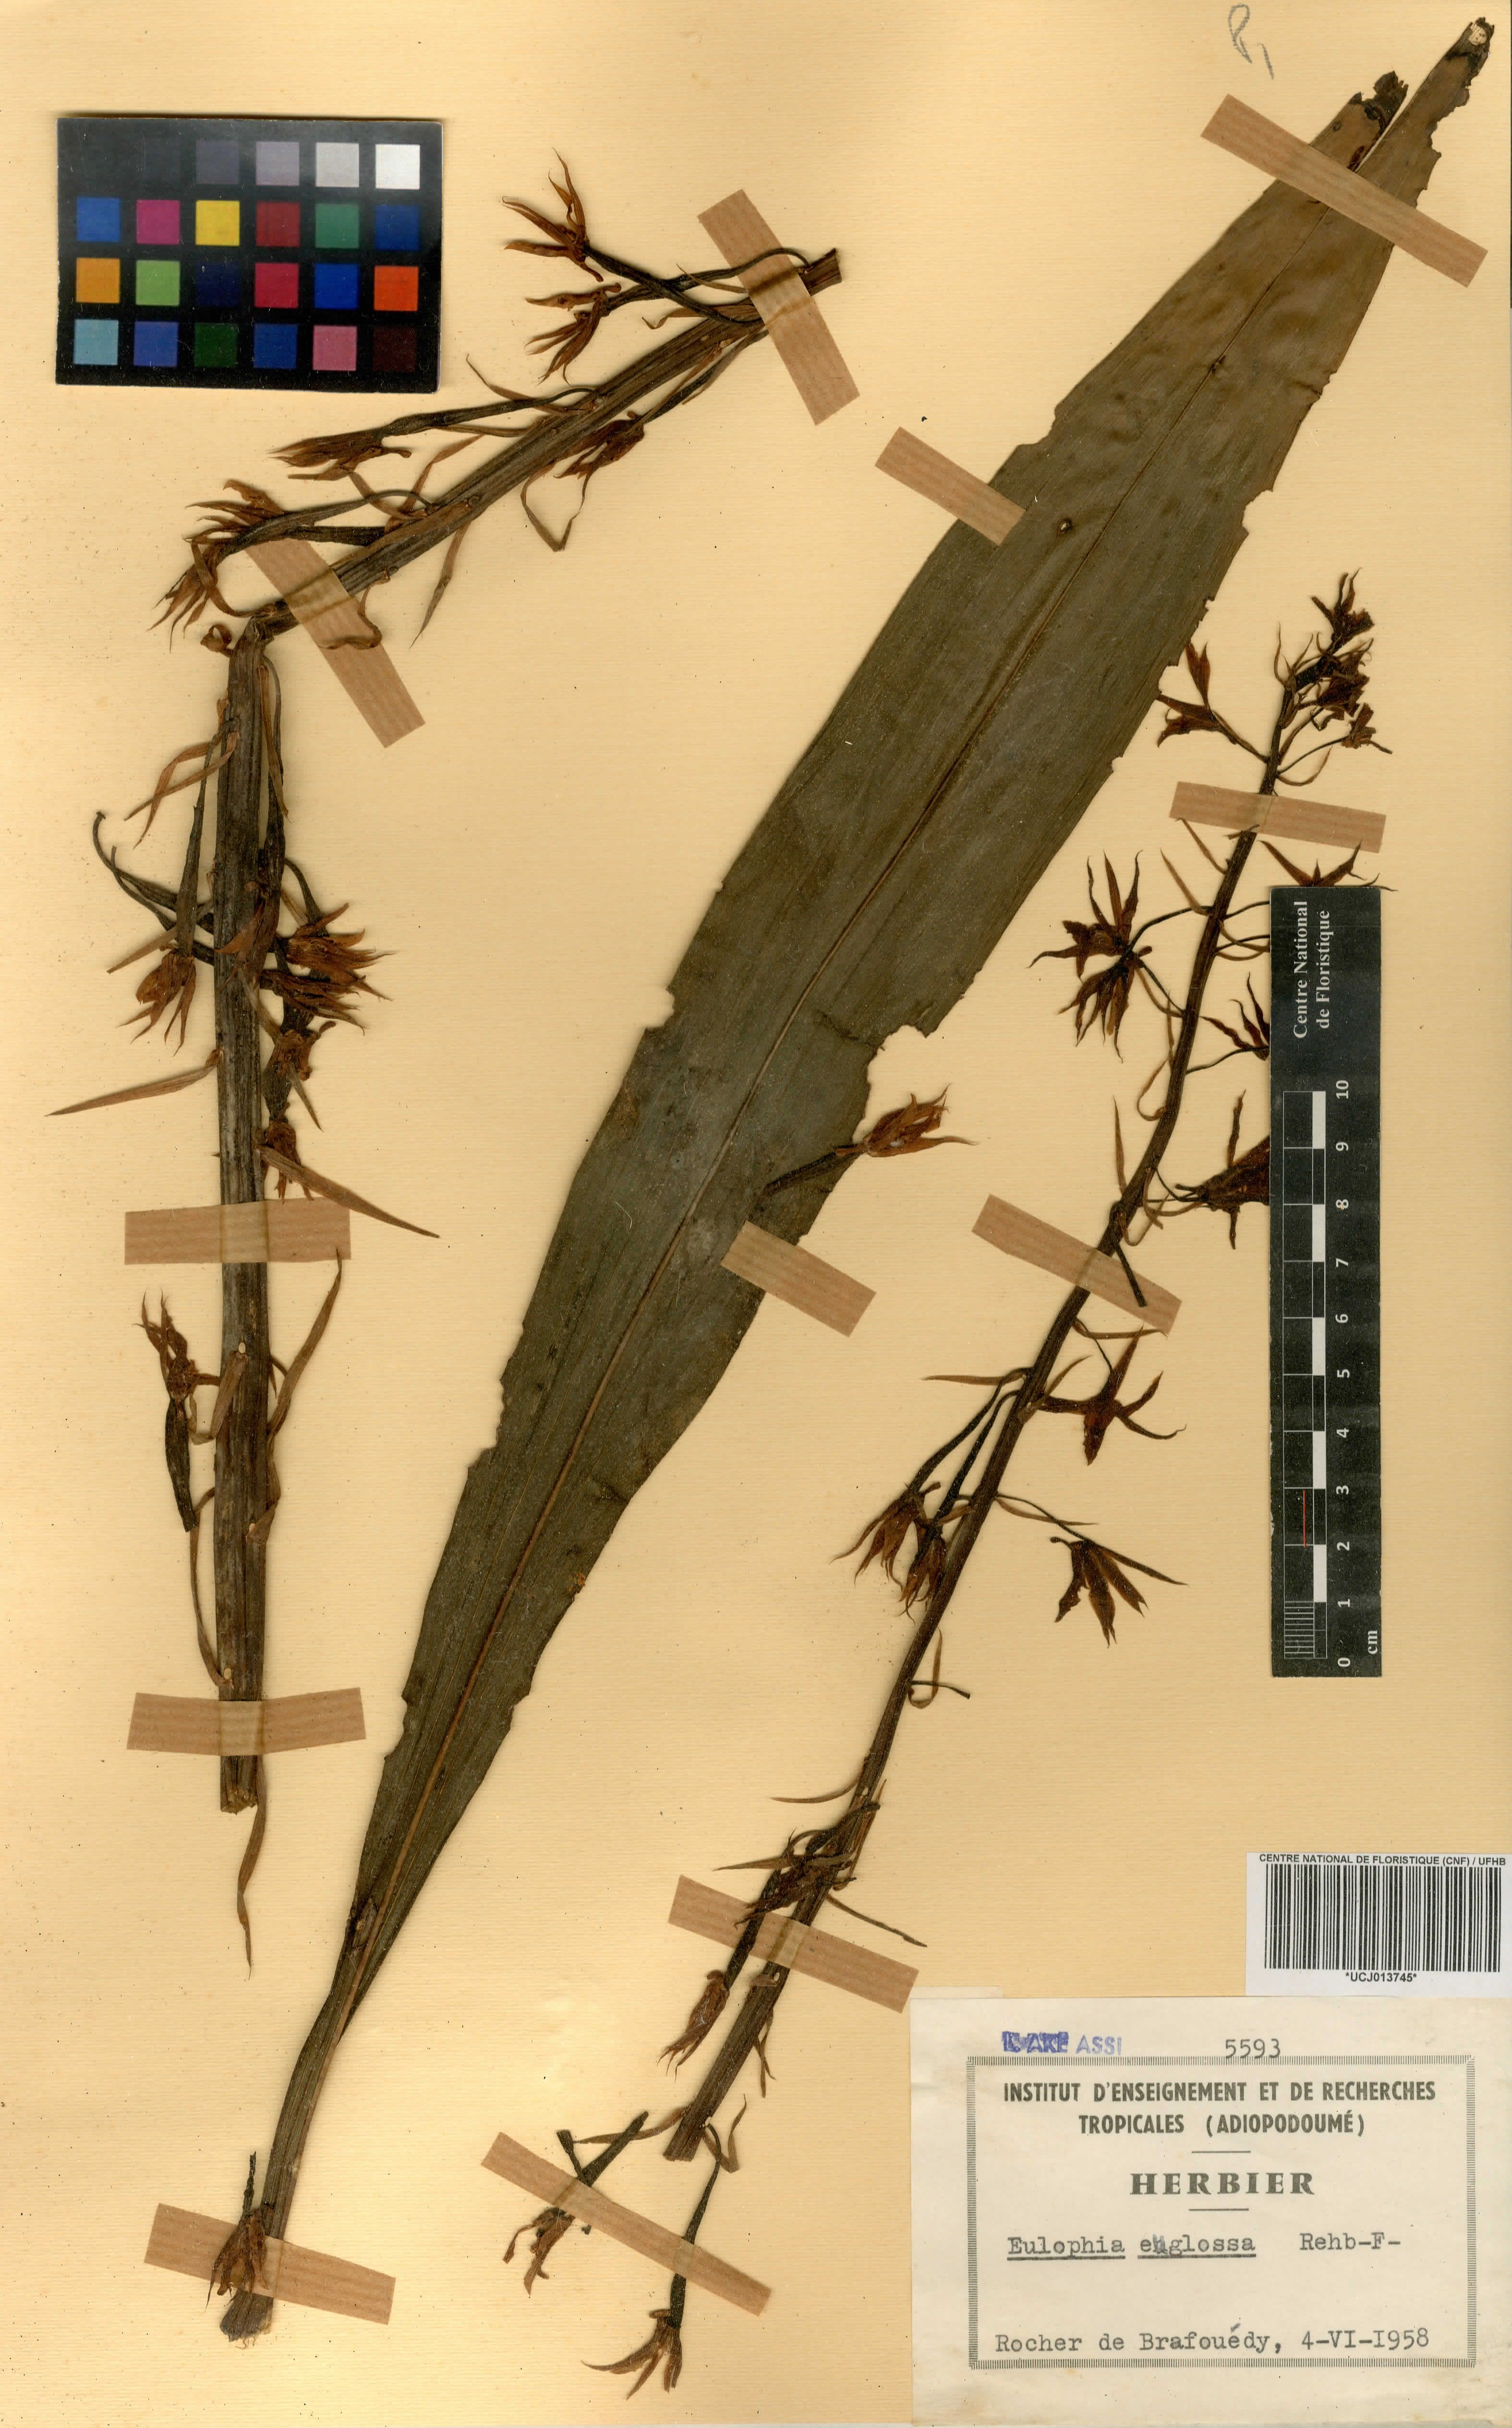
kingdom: Plantae
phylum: Tracheophyta
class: Liliopsida
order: Asparagales
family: Orchidaceae
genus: Eulophia
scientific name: Eulophia euglossa
